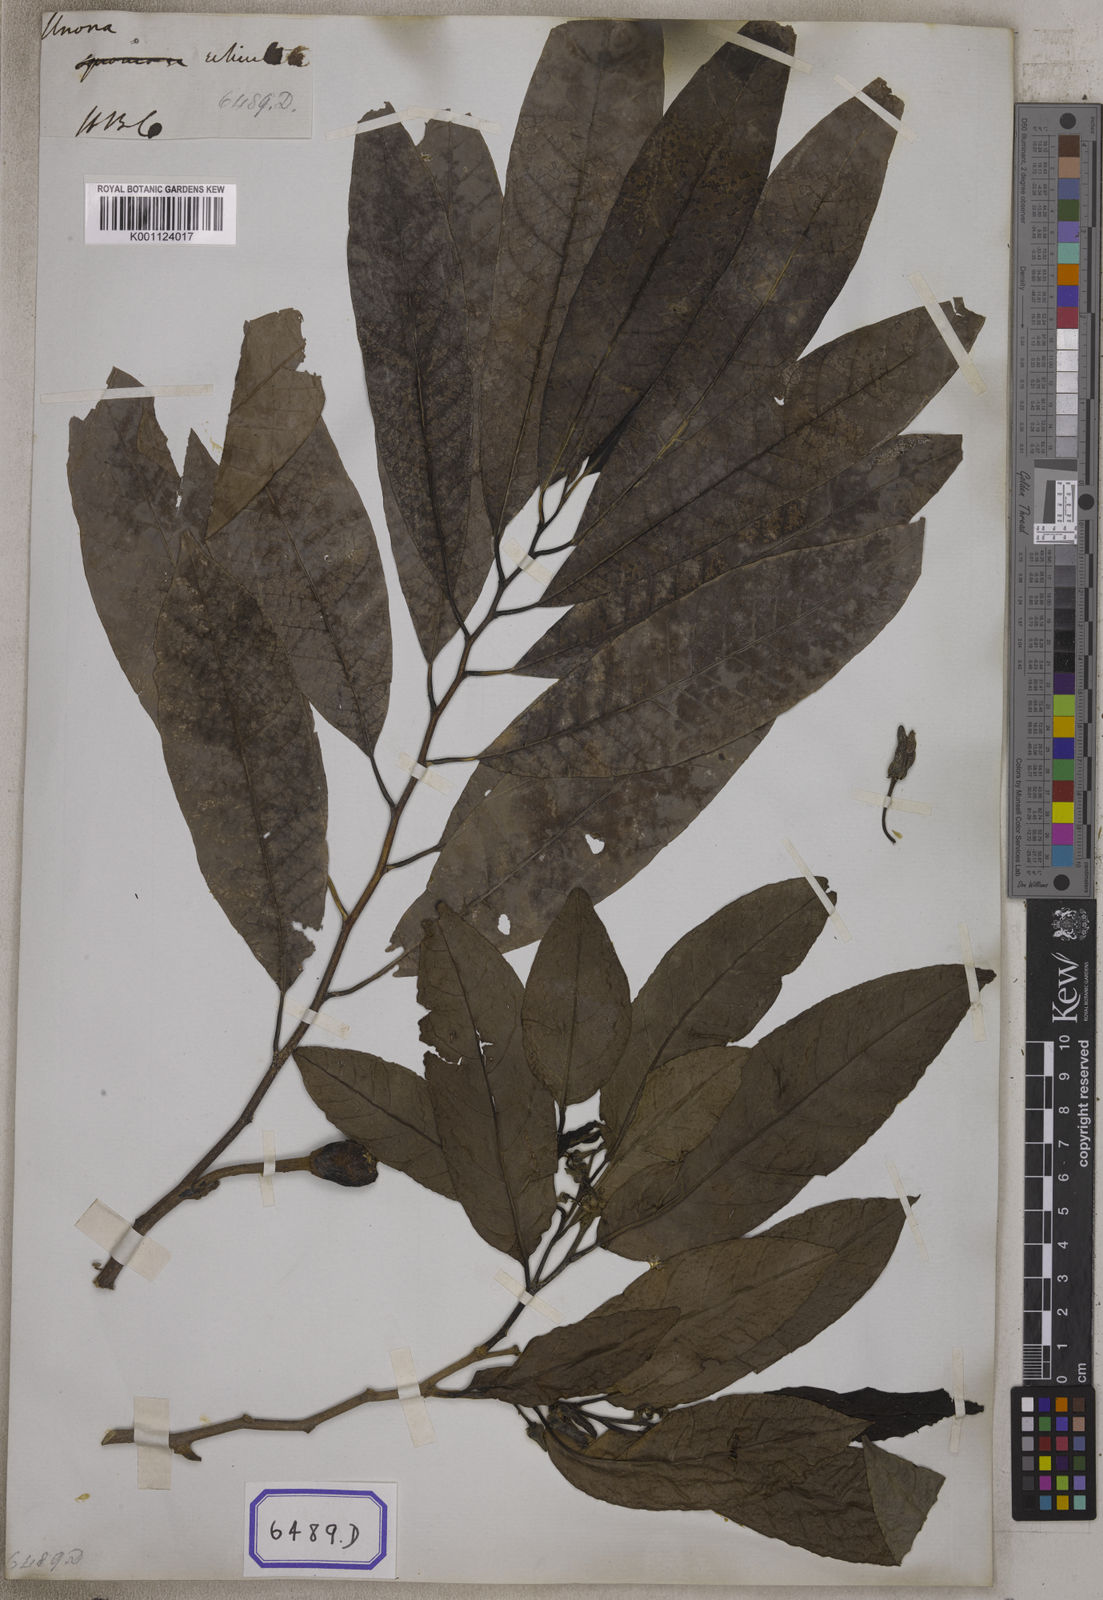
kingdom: Plantae
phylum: Tracheophyta
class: Magnoliopsida
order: Magnoliales
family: Annonaceae
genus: Annona
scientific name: Annona reticulata
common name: Custard apple
